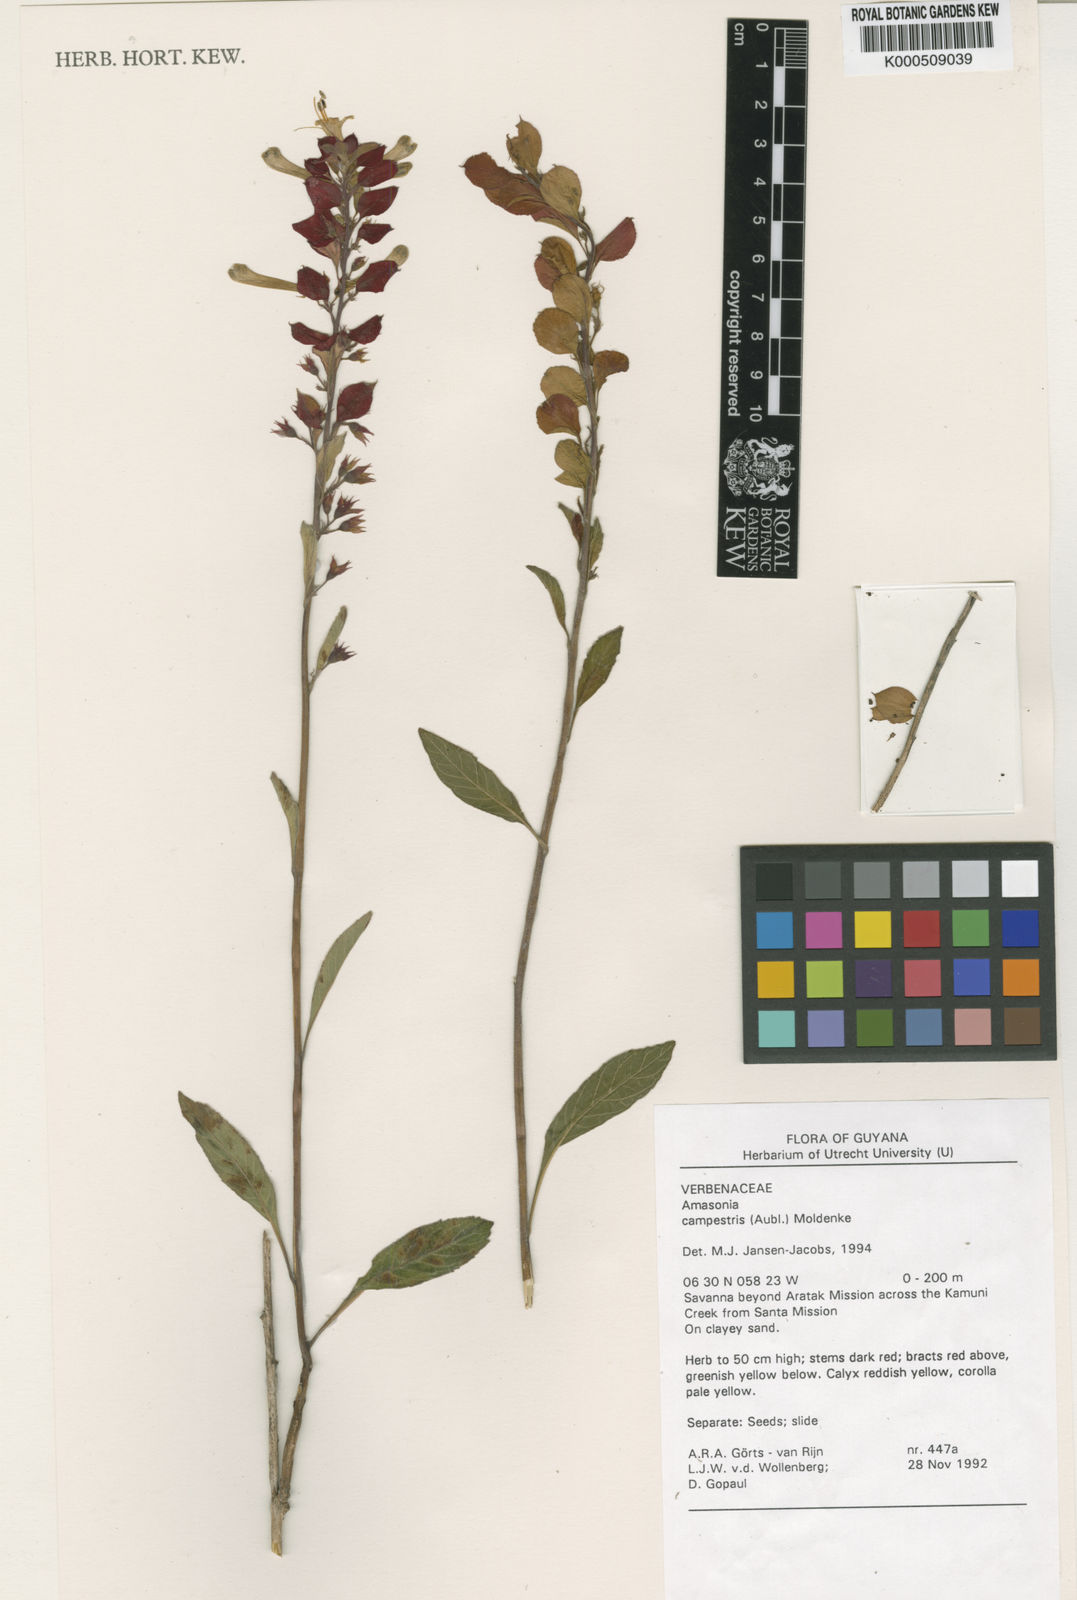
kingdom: Plantae
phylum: Tracheophyta
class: Magnoliopsida
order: Lamiales
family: Lamiaceae
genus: Amasonia
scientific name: Amasonia campestris
